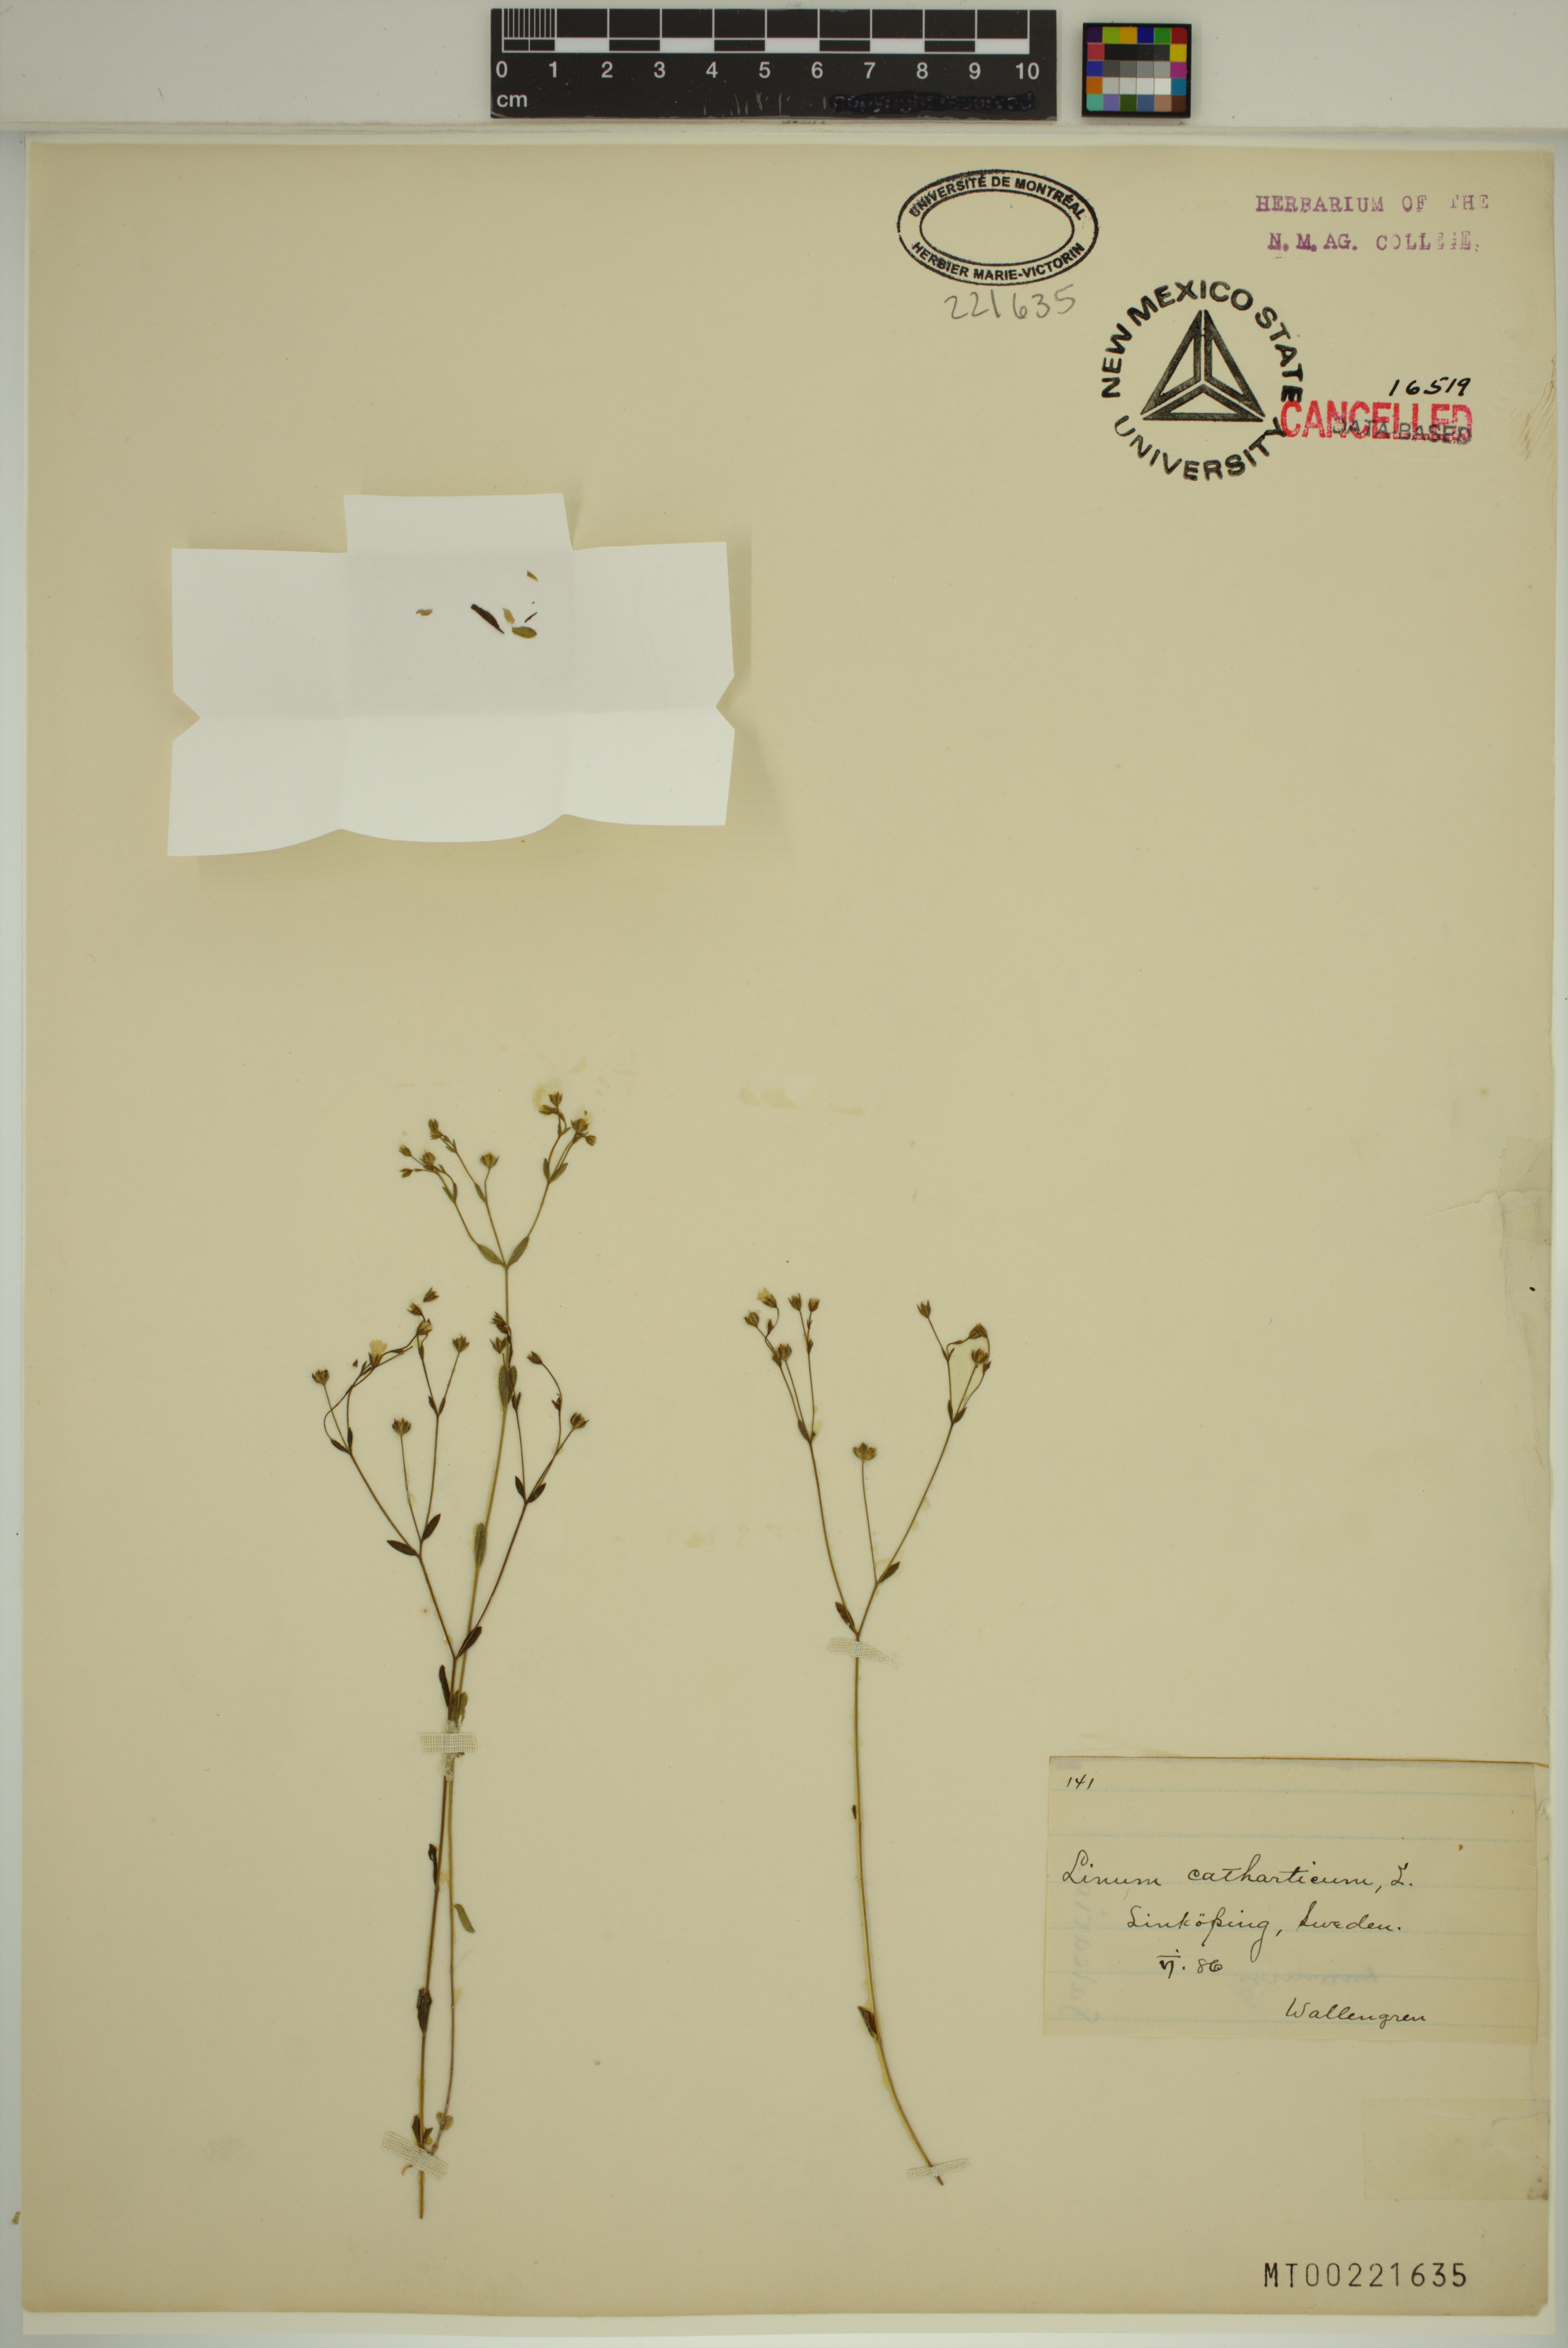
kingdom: Plantae
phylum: Tracheophyta
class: Magnoliopsida
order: Malpighiales
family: Linaceae
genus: Linum
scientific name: Linum catharticum
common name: Fairy flax
